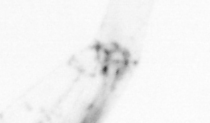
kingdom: Animalia
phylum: Chordata
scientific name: Chordata
